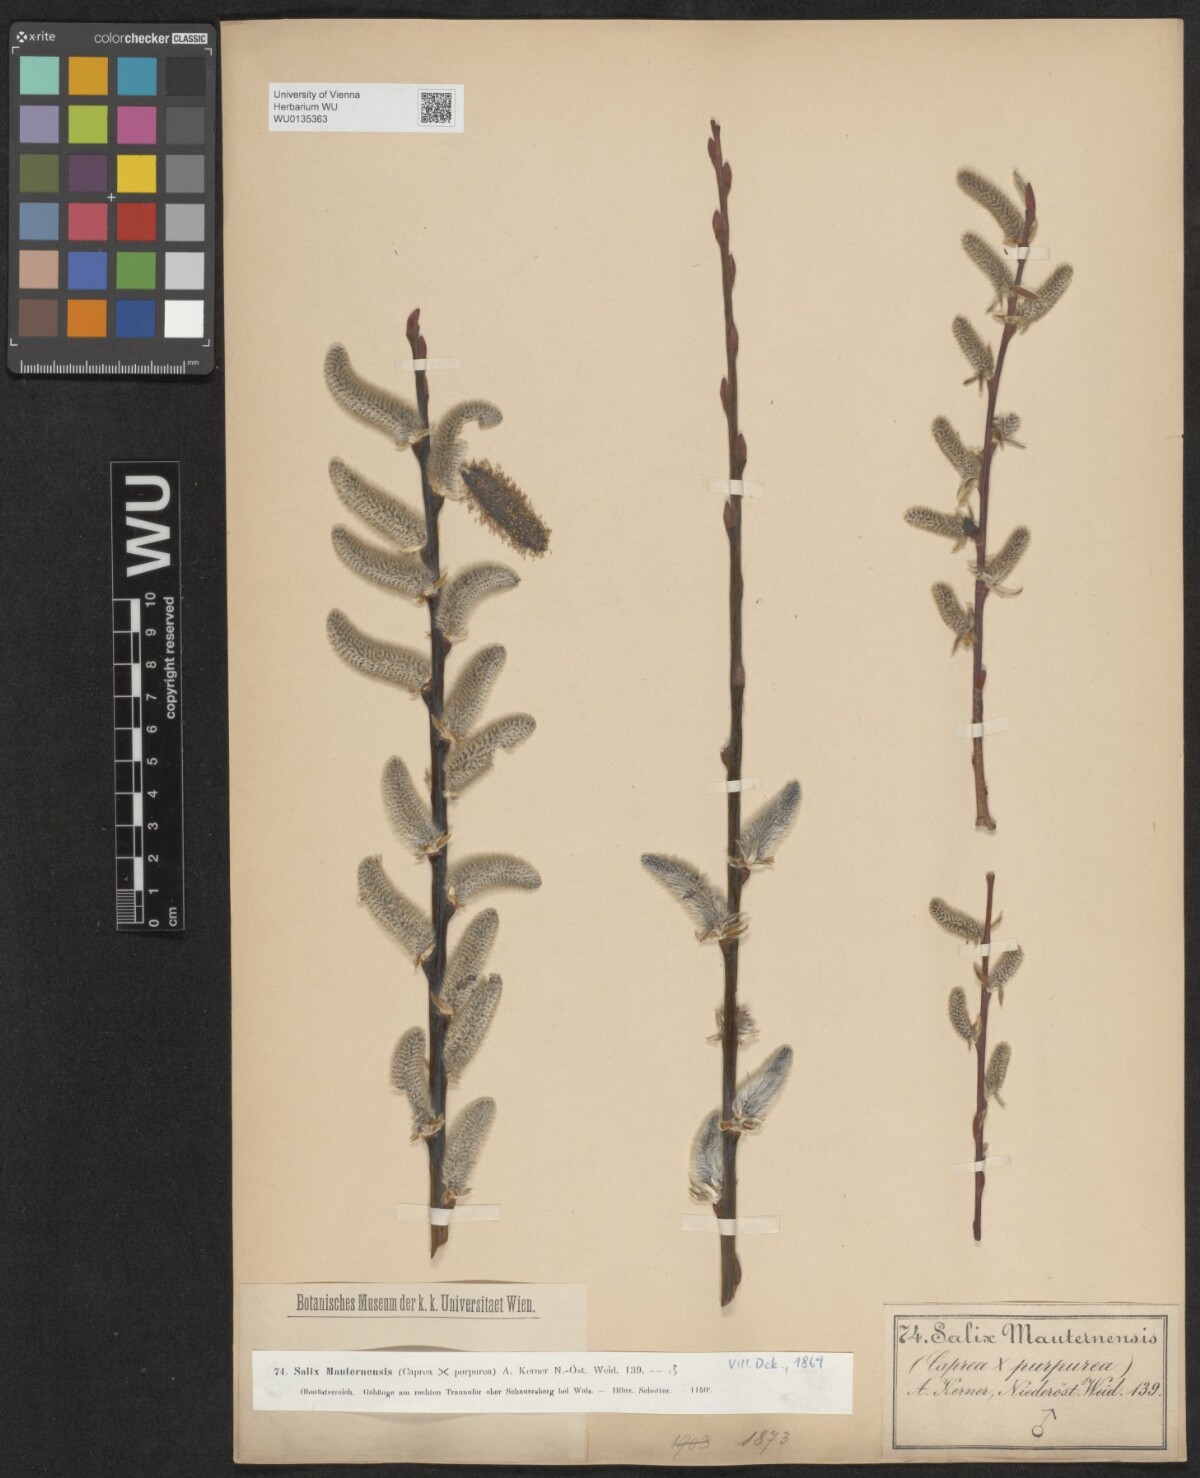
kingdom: Plantae
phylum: Tracheophyta
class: Magnoliopsida
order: Malpighiales
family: Salicaceae
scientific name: Salicaceae
